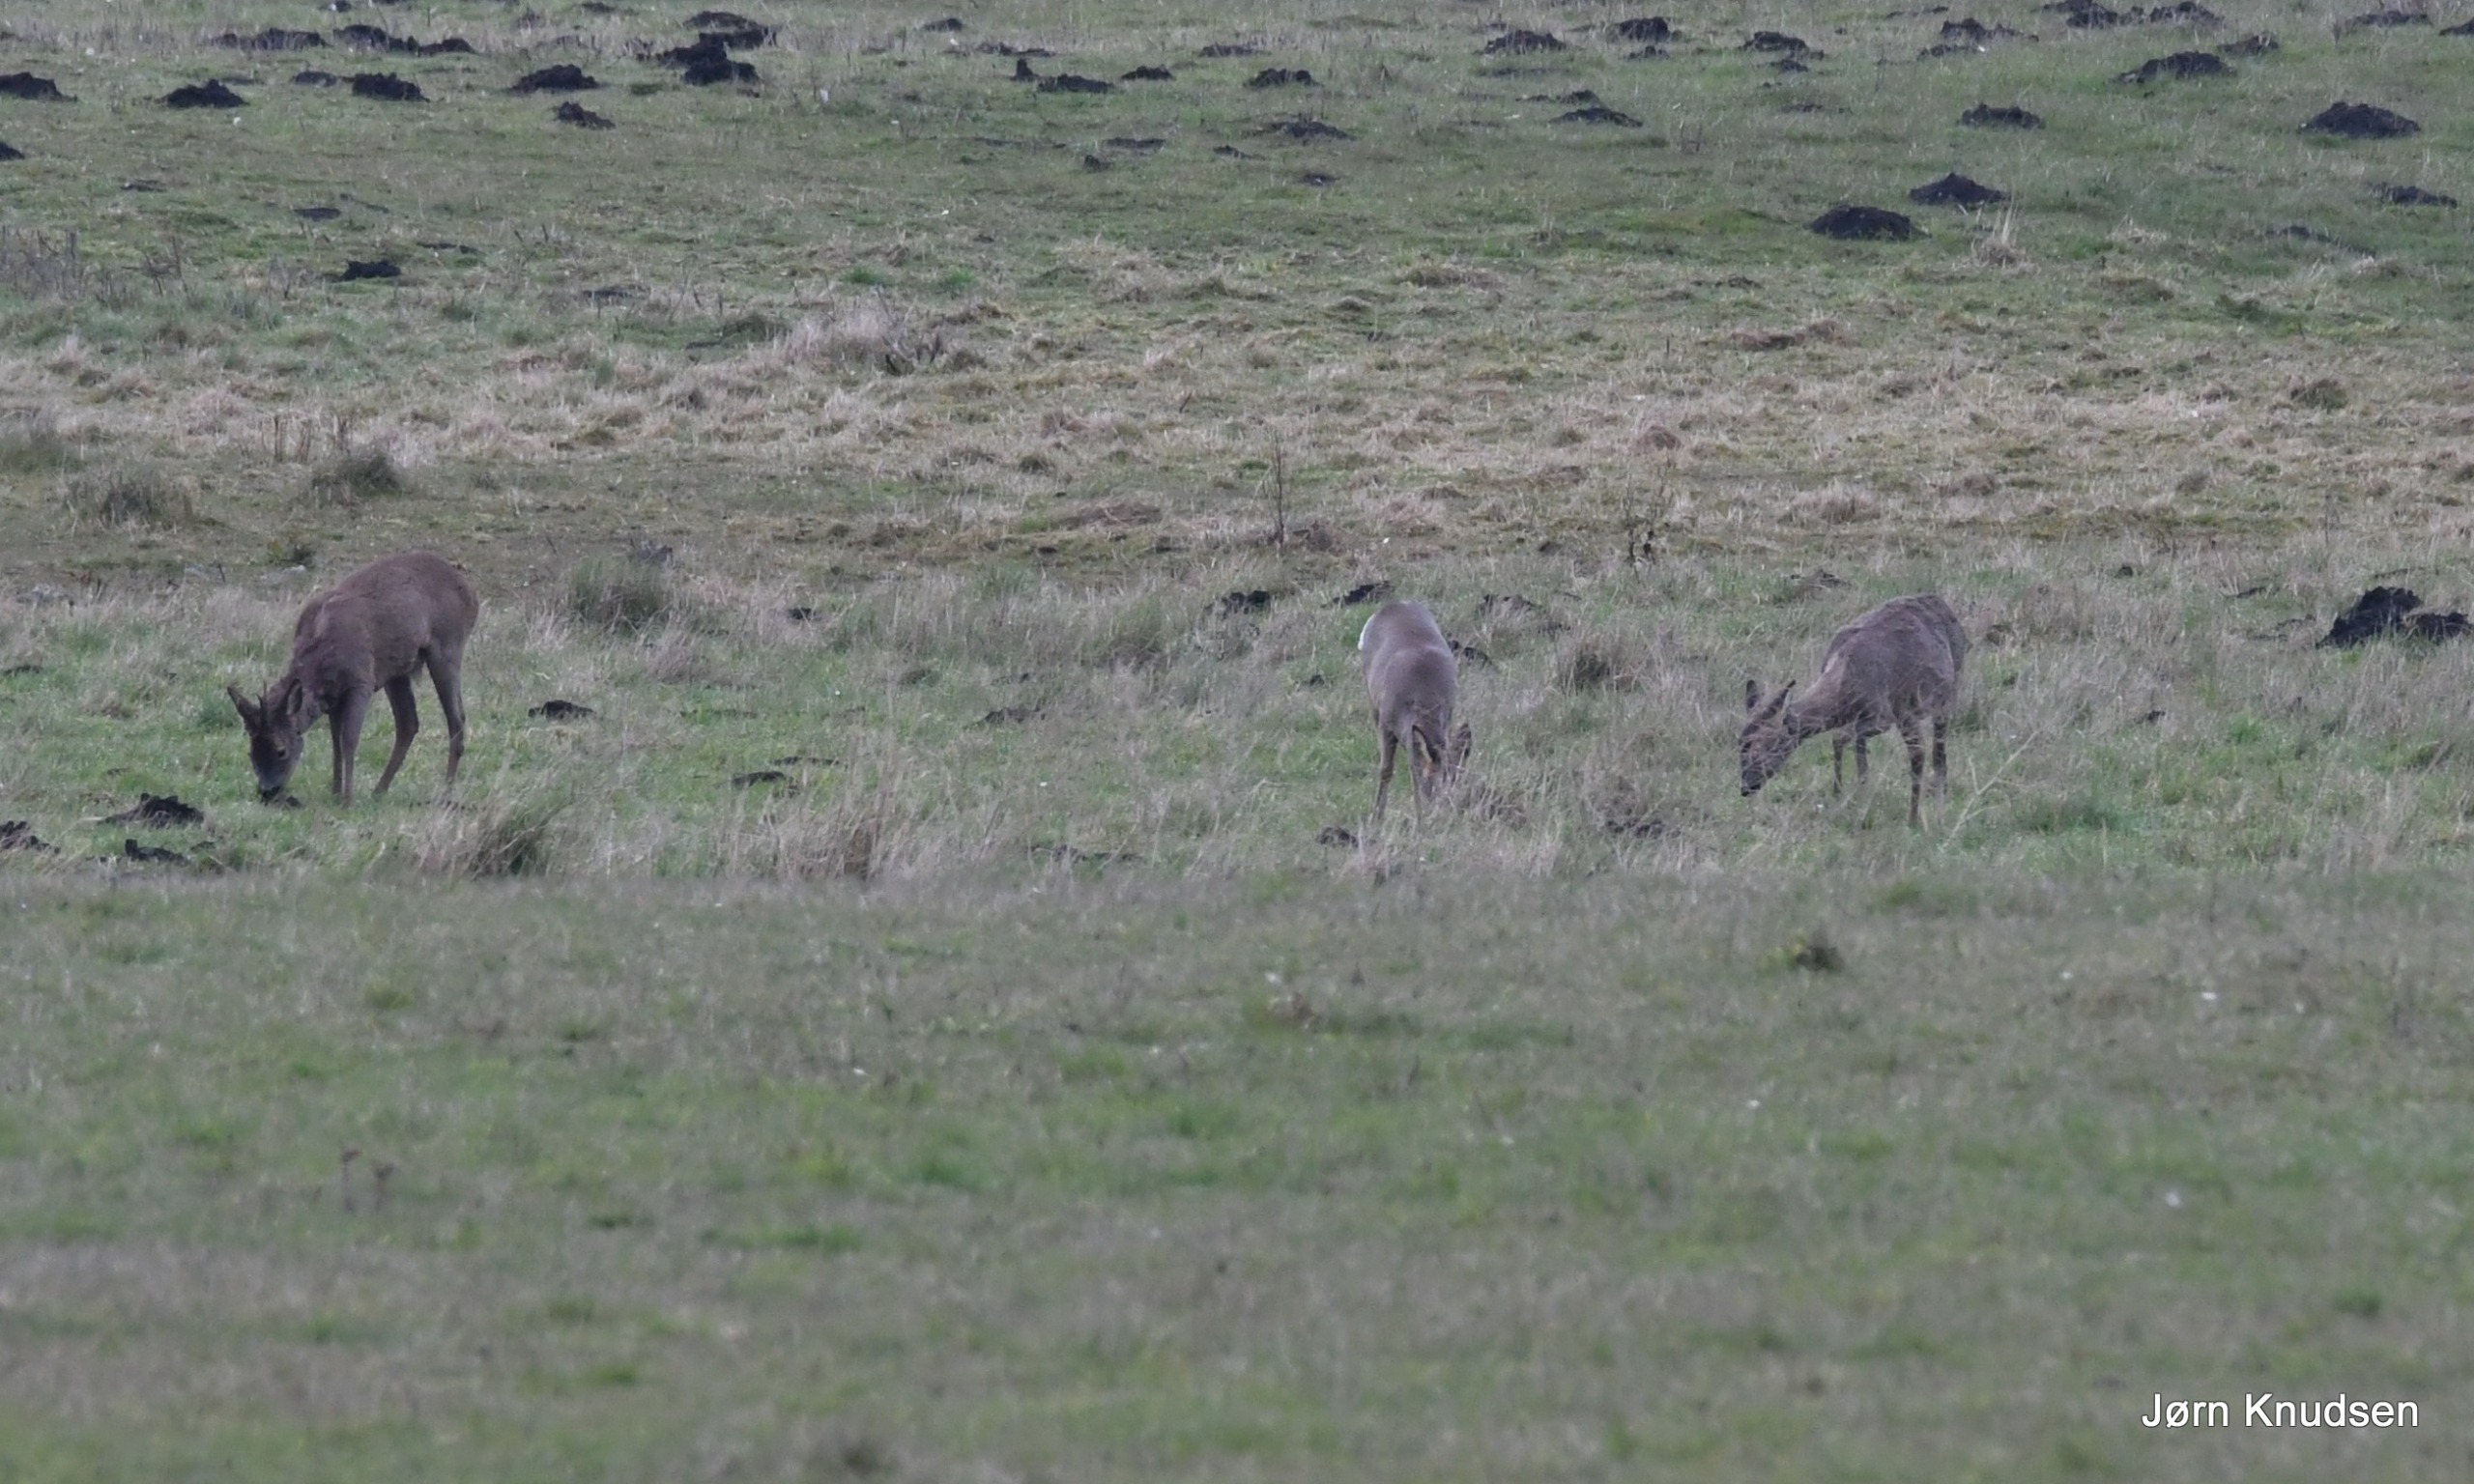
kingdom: Animalia
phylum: Chordata
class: Mammalia
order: Artiodactyla
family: Cervidae
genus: Capreolus
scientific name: Capreolus capreolus
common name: Rådyr
